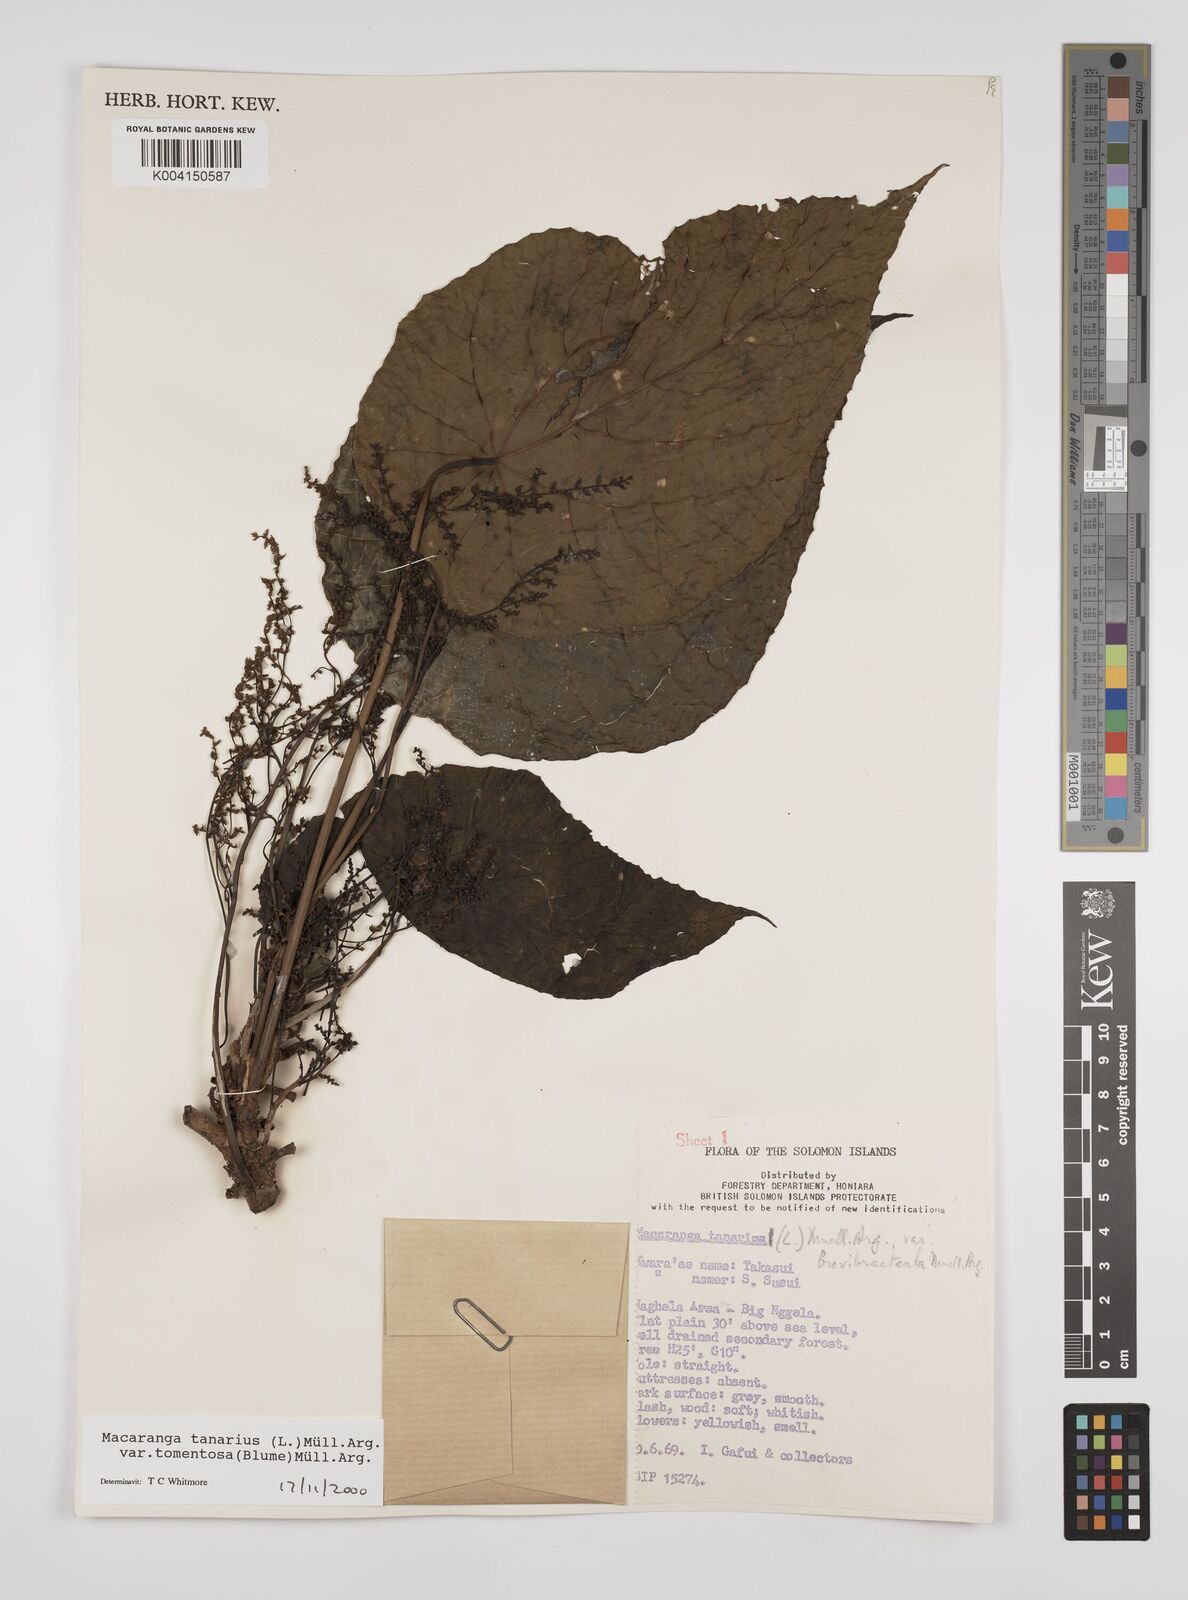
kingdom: Plantae
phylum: Tracheophyta
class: Magnoliopsida
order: Malpighiales
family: Euphorbiaceae
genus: Macaranga
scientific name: Macaranga tanarius
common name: Parasol leaf tree
